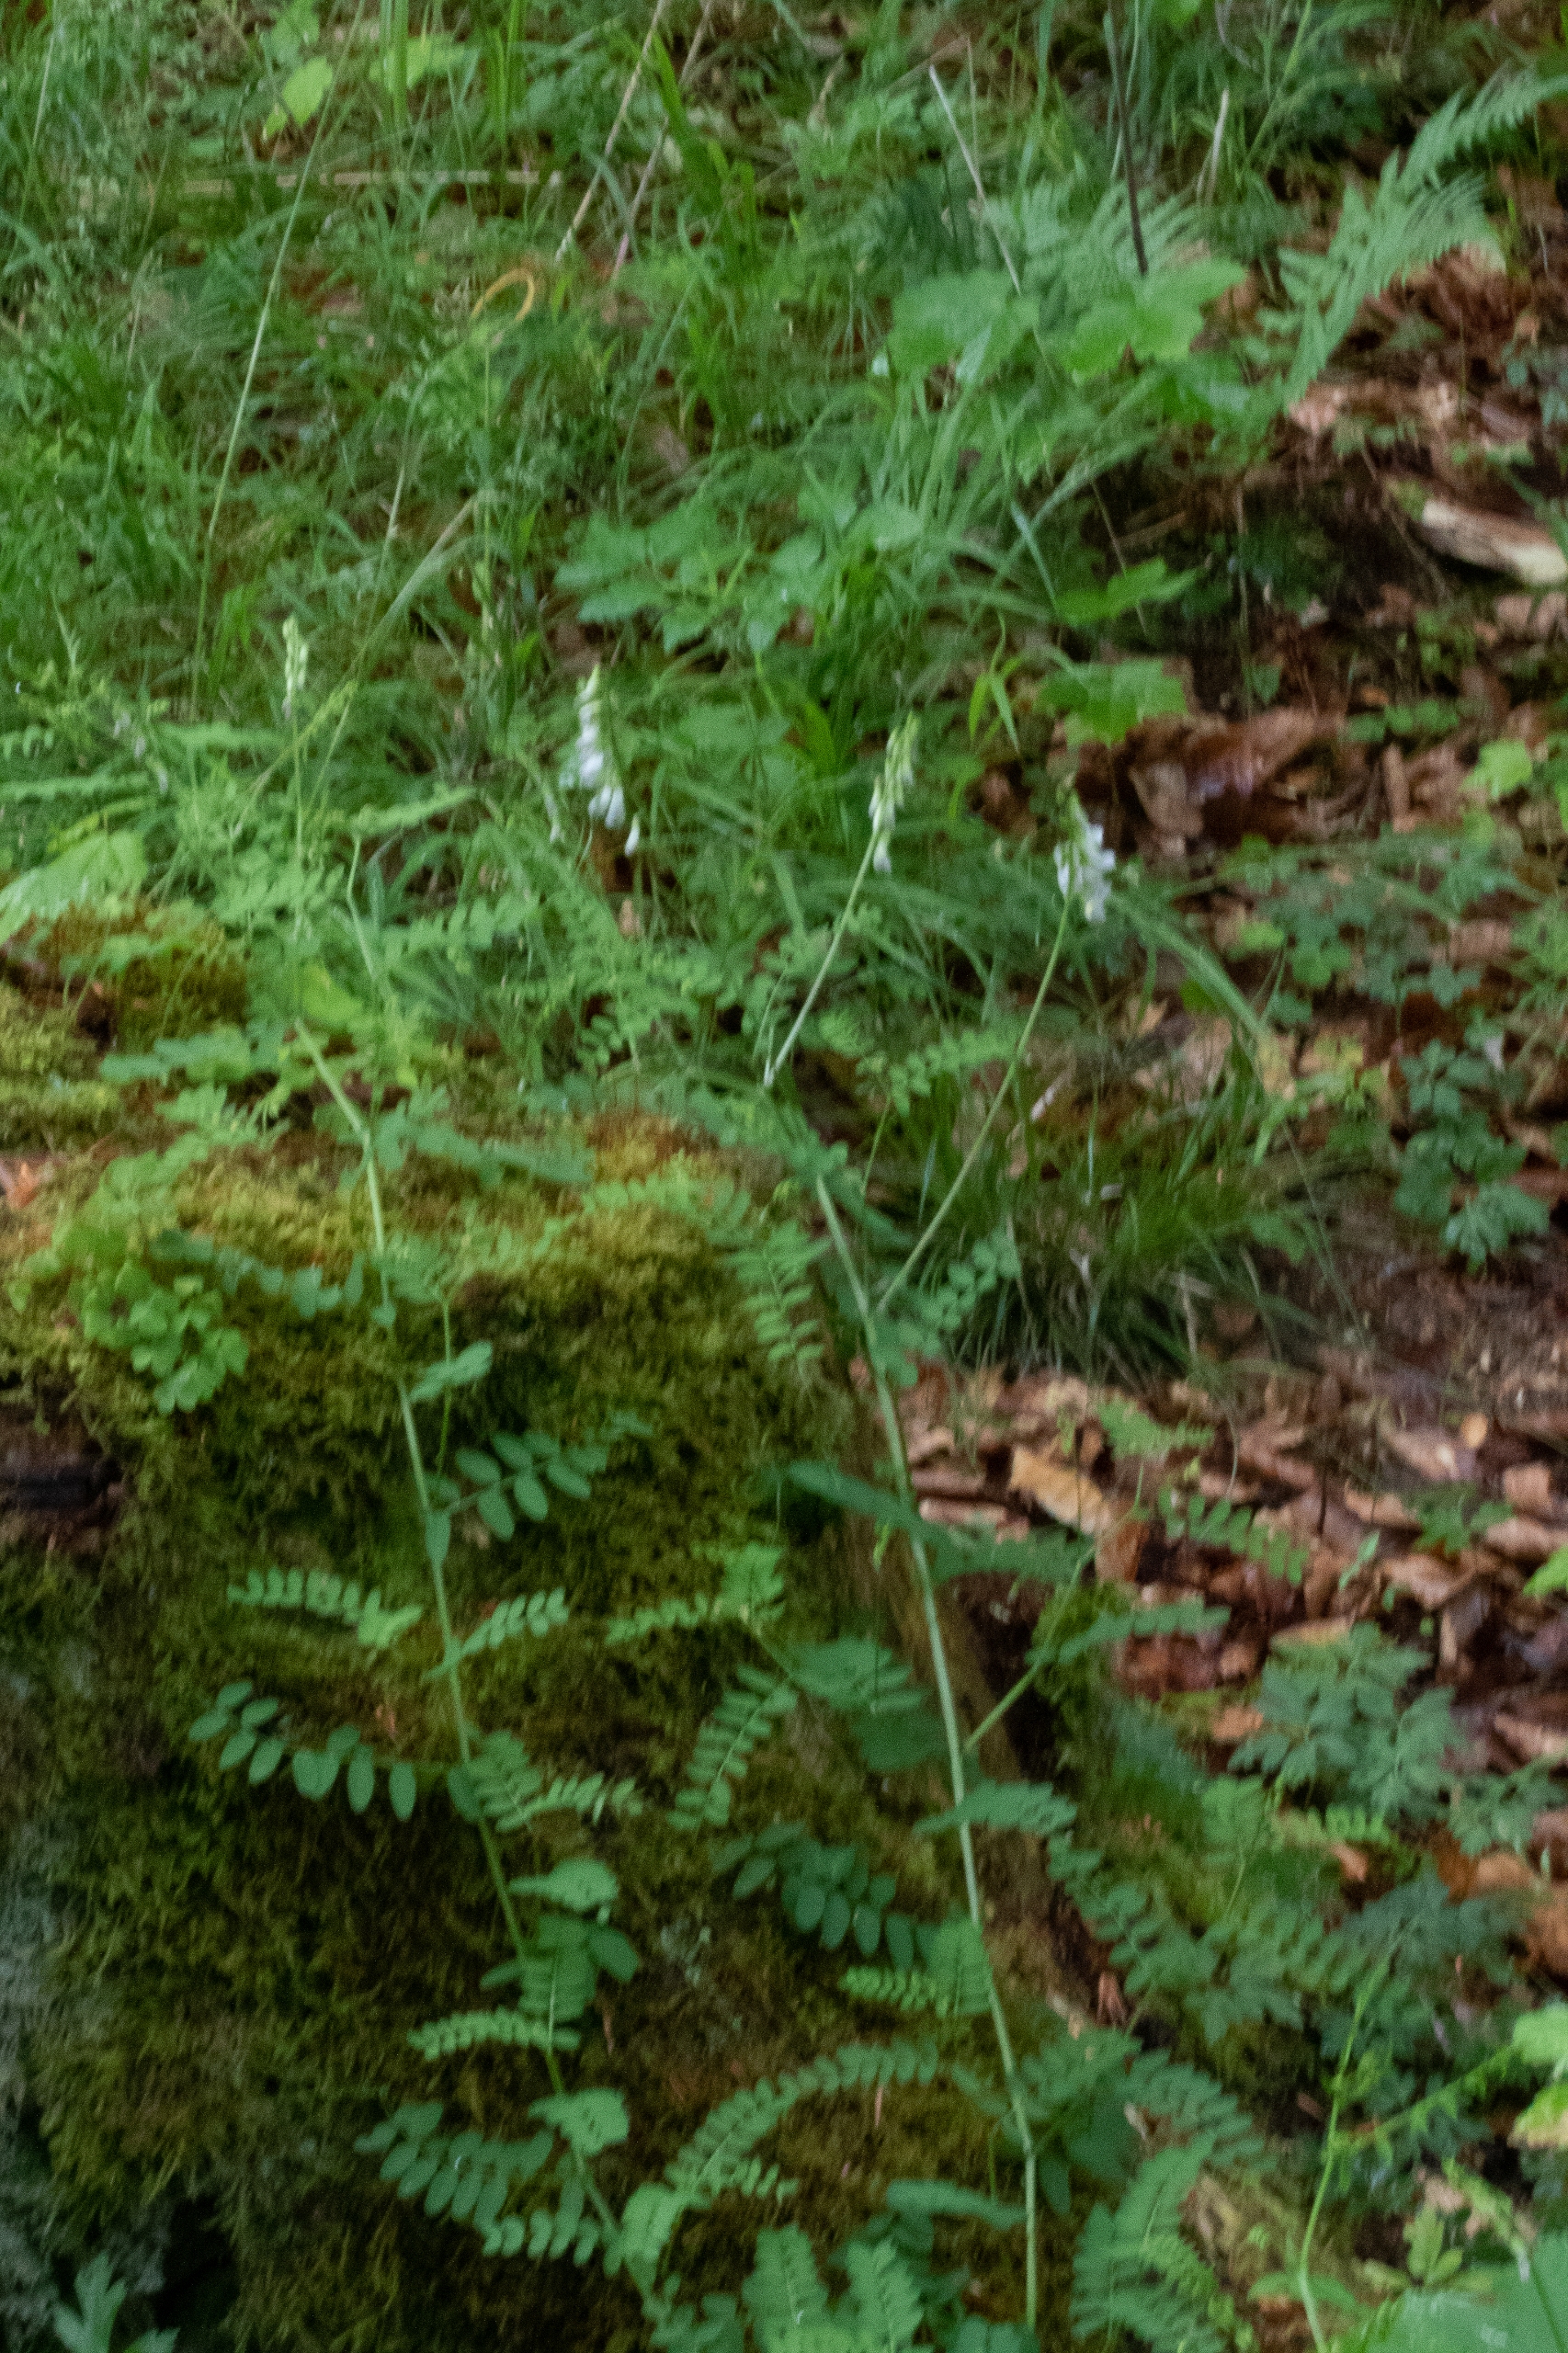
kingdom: Plantae
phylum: Tracheophyta
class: Magnoliopsida
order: Fabales
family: Fabaceae
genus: Vicia
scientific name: Vicia sylvatica
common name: Skov-vikke
